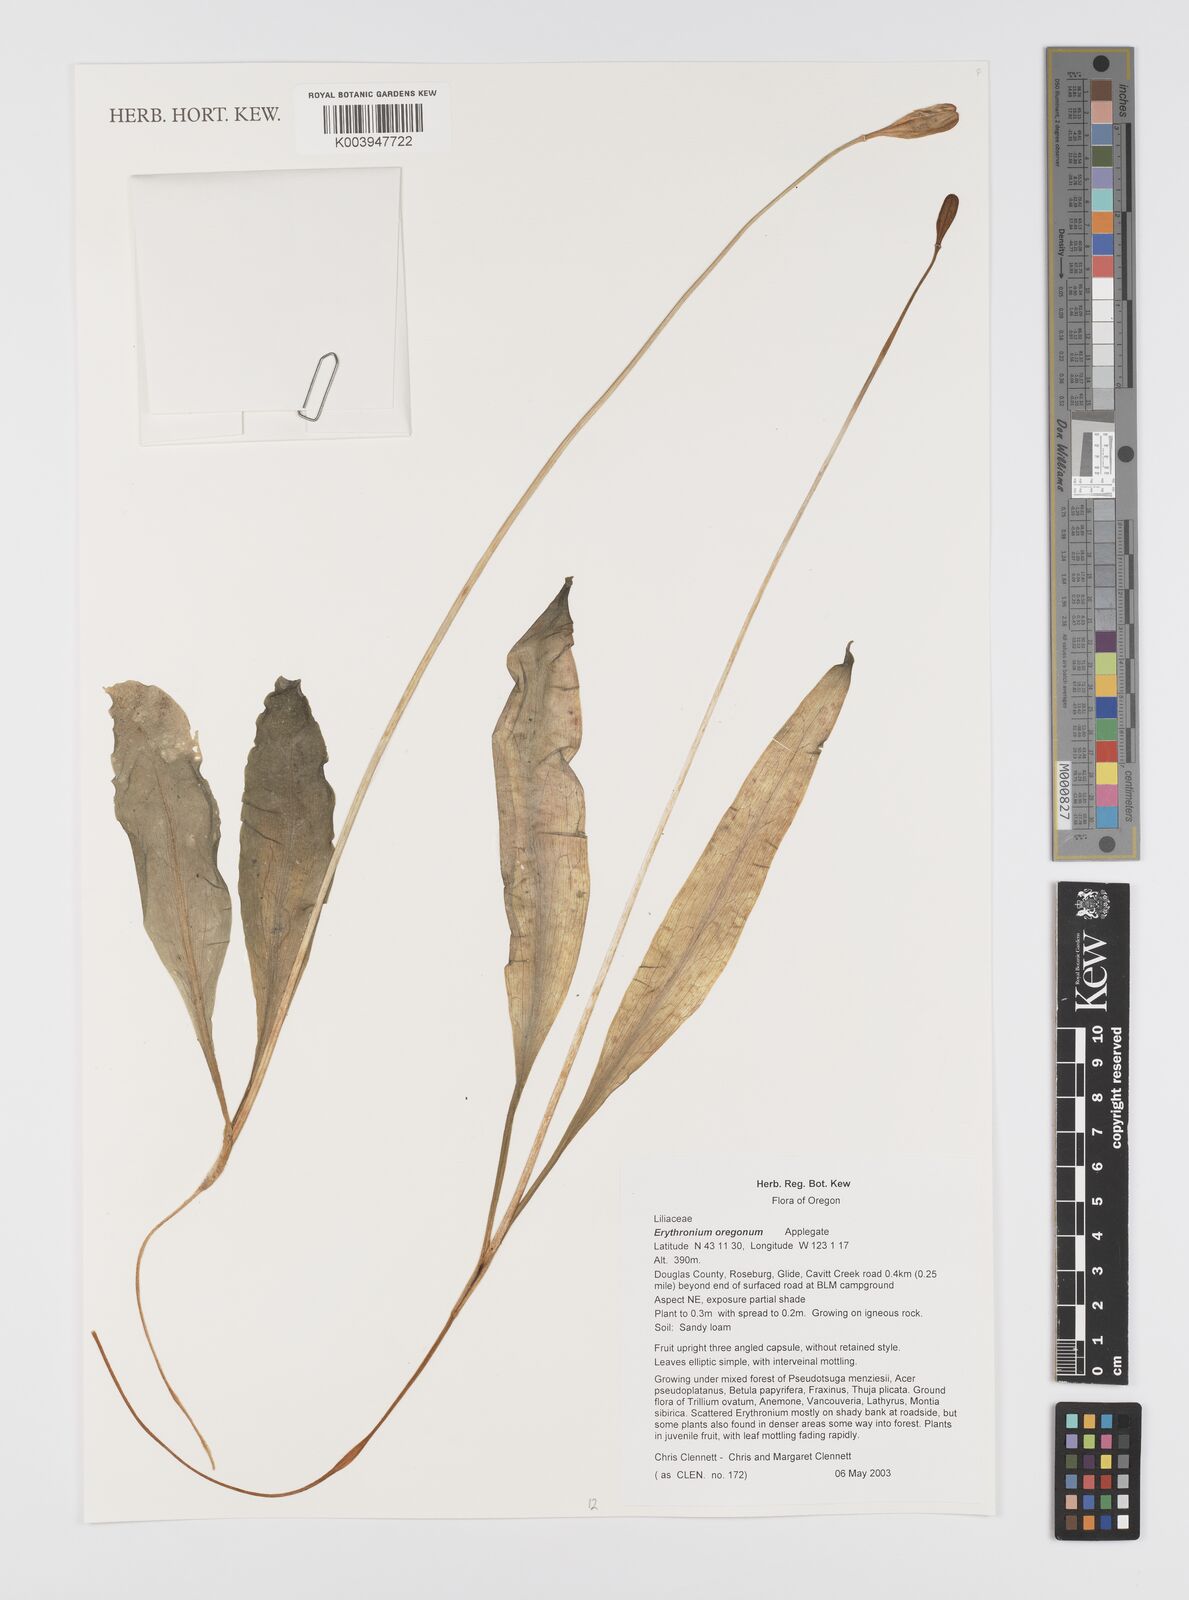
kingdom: Plantae
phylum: Tracheophyta
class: Liliopsida
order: Liliales
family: Liliaceae
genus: Erythronium
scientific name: Erythronium oregonum
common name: Giant adder's-tongue
